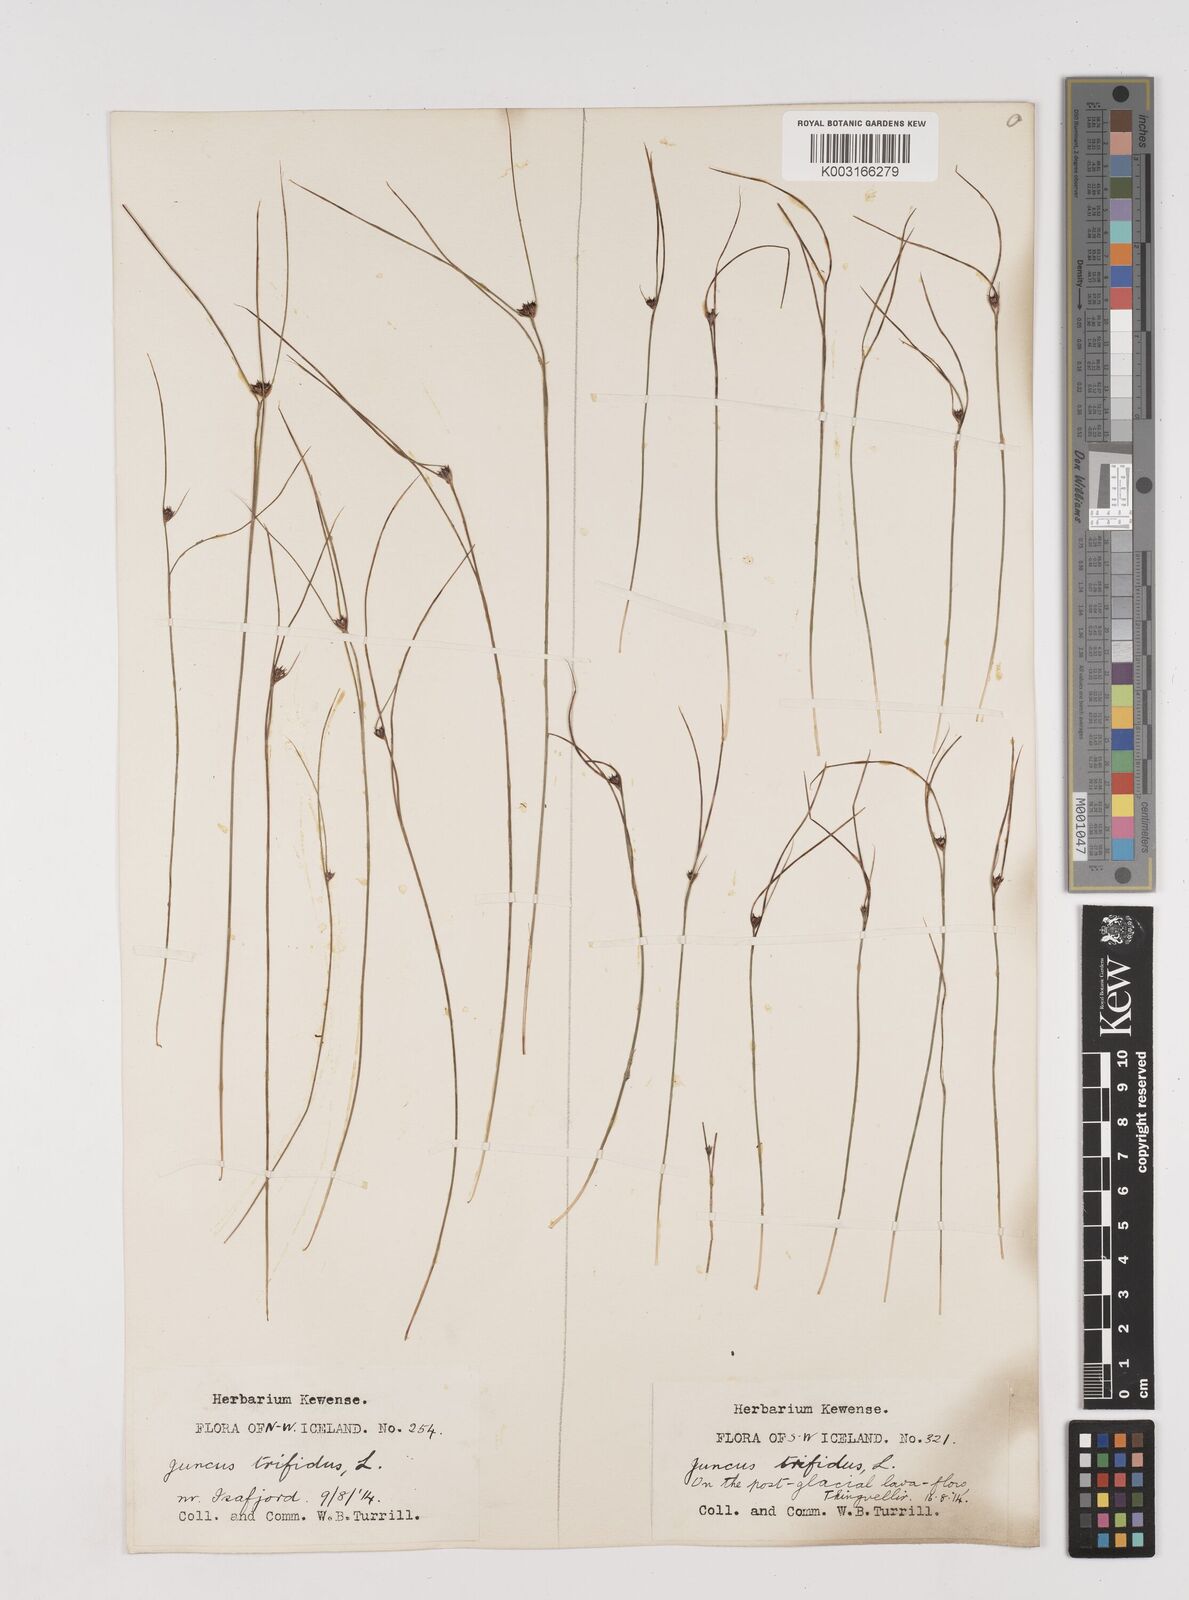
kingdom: Plantae
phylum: Tracheophyta
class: Liliopsida
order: Poales
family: Juncaceae
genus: Oreojuncus
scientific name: Oreojuncus trifidus
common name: Highland rush
